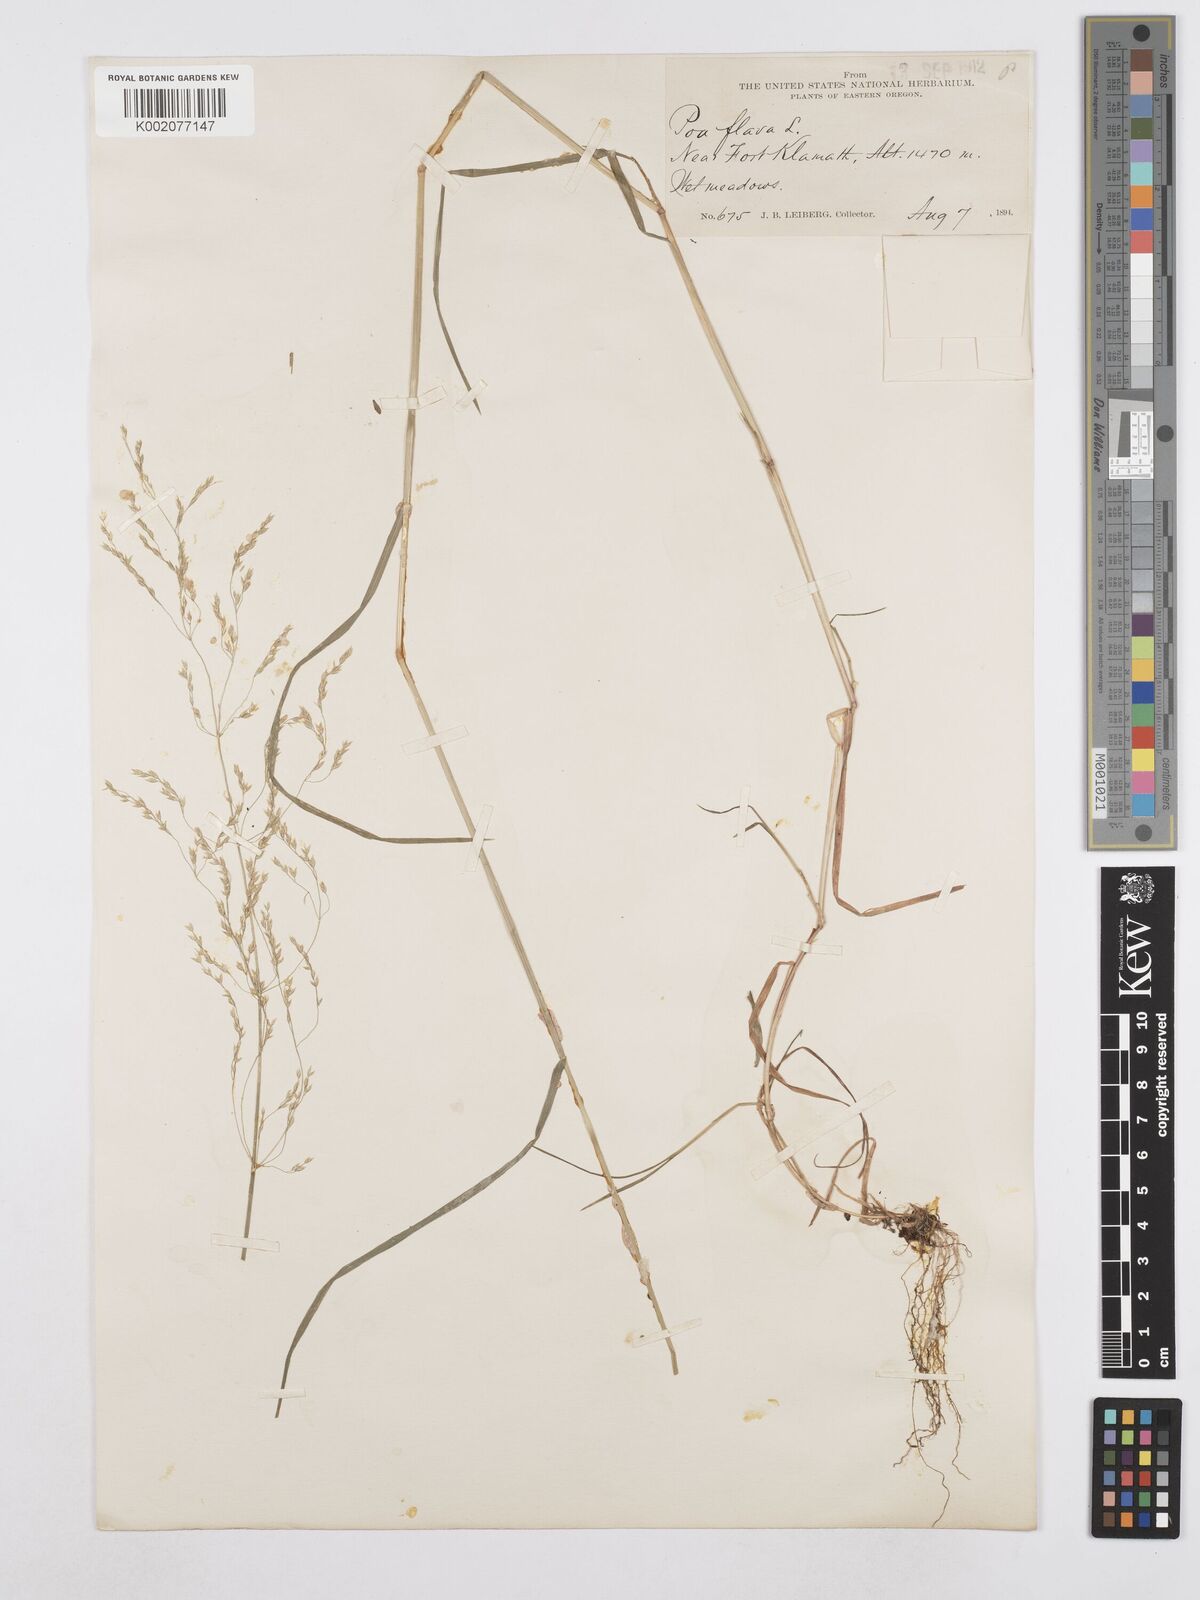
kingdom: Plantae
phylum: Tracheophyta
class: Liliopsida
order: Poales
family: Poaceae
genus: Poa
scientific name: Poa palustris
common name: Swamp meadow-grass
